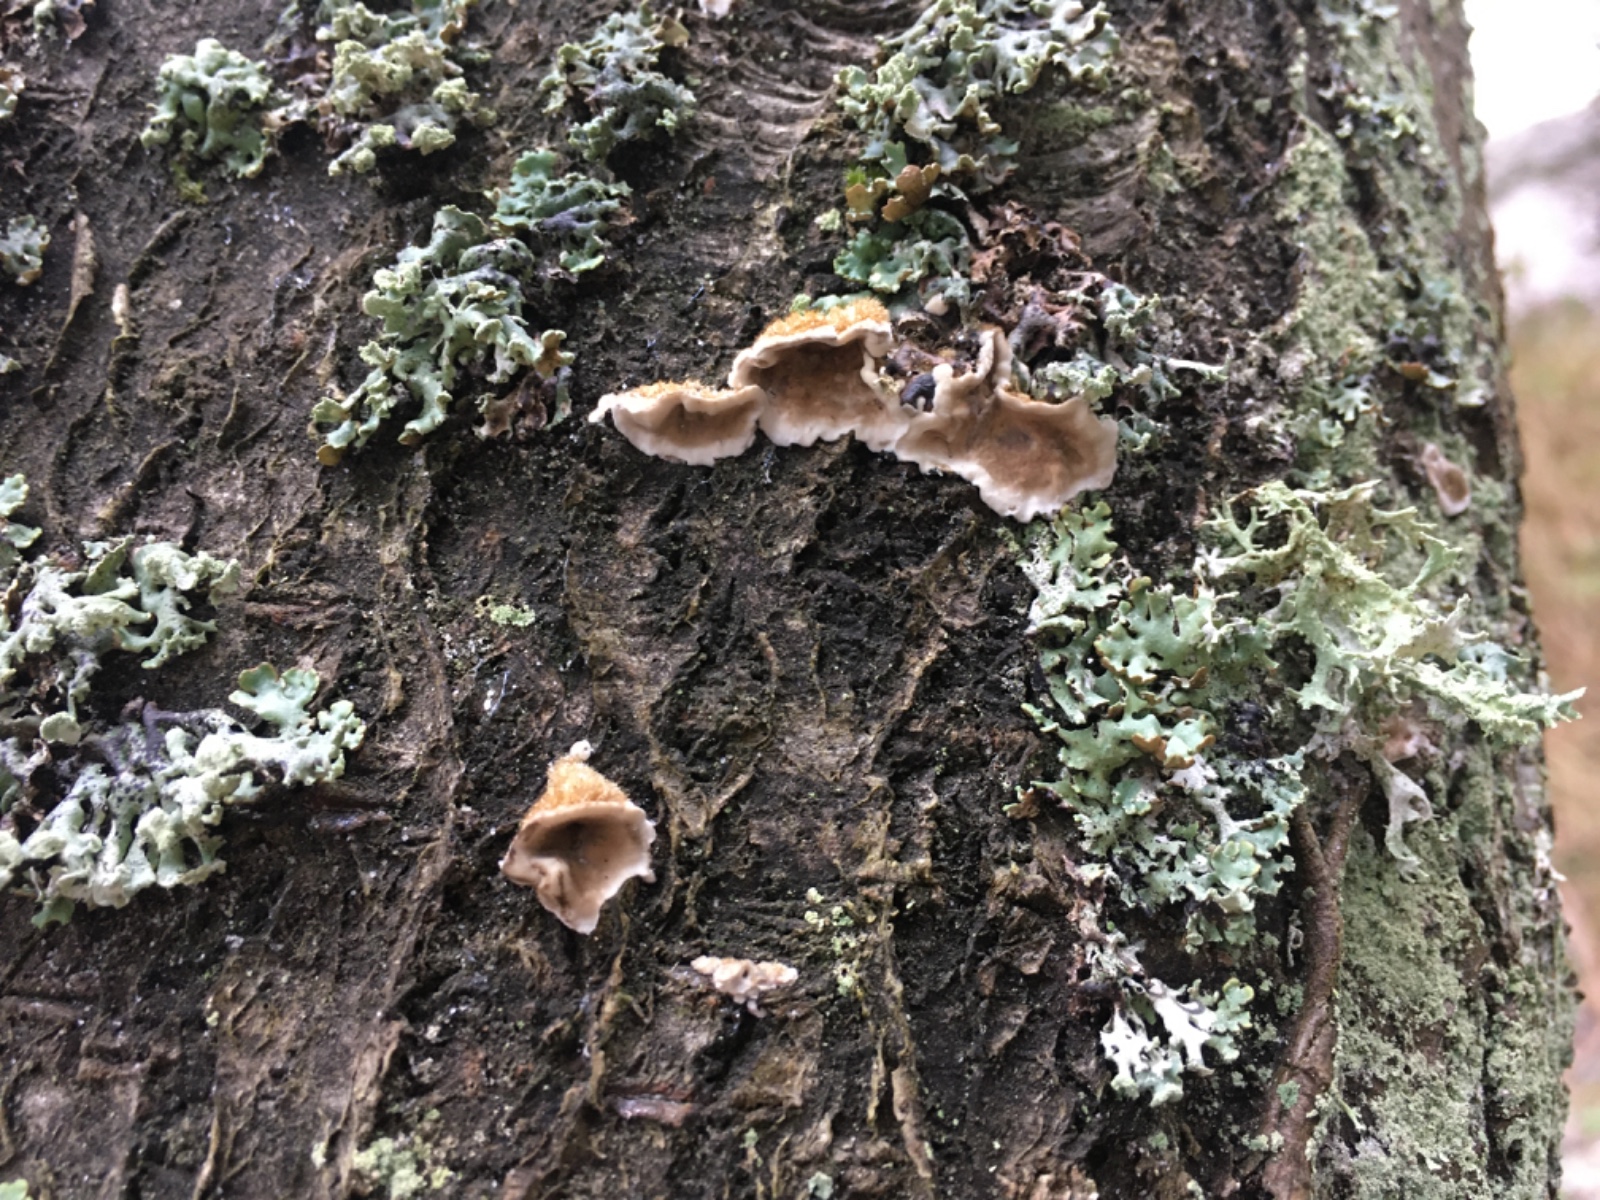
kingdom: Fungi
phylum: Basidiomycota
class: Agaricomycetes
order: Russulales
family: Stereaceae
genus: Stereum
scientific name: Stereum hirsutum
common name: håret lædersvamp
